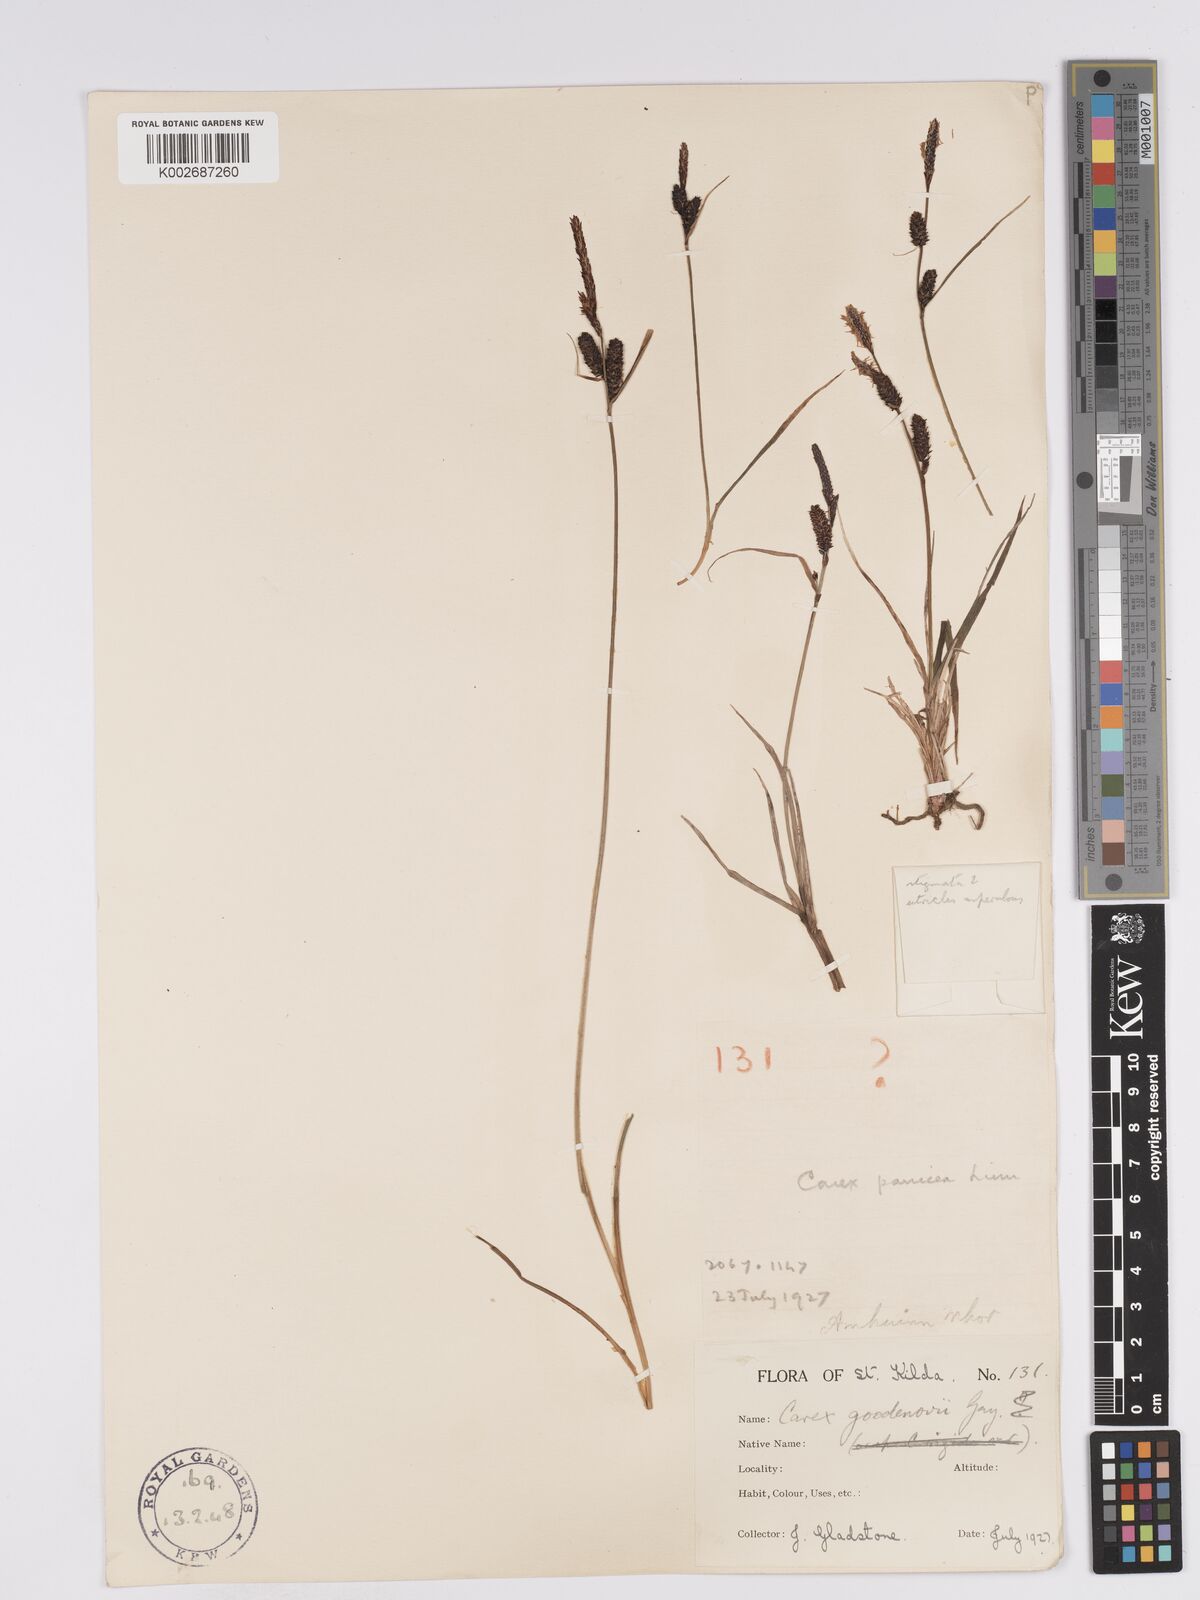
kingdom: Plantae
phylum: Tracheophyta
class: Liliopsida
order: Poales
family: Cyperaceae
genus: Carex
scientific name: Carex nigra
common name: Common sedge
